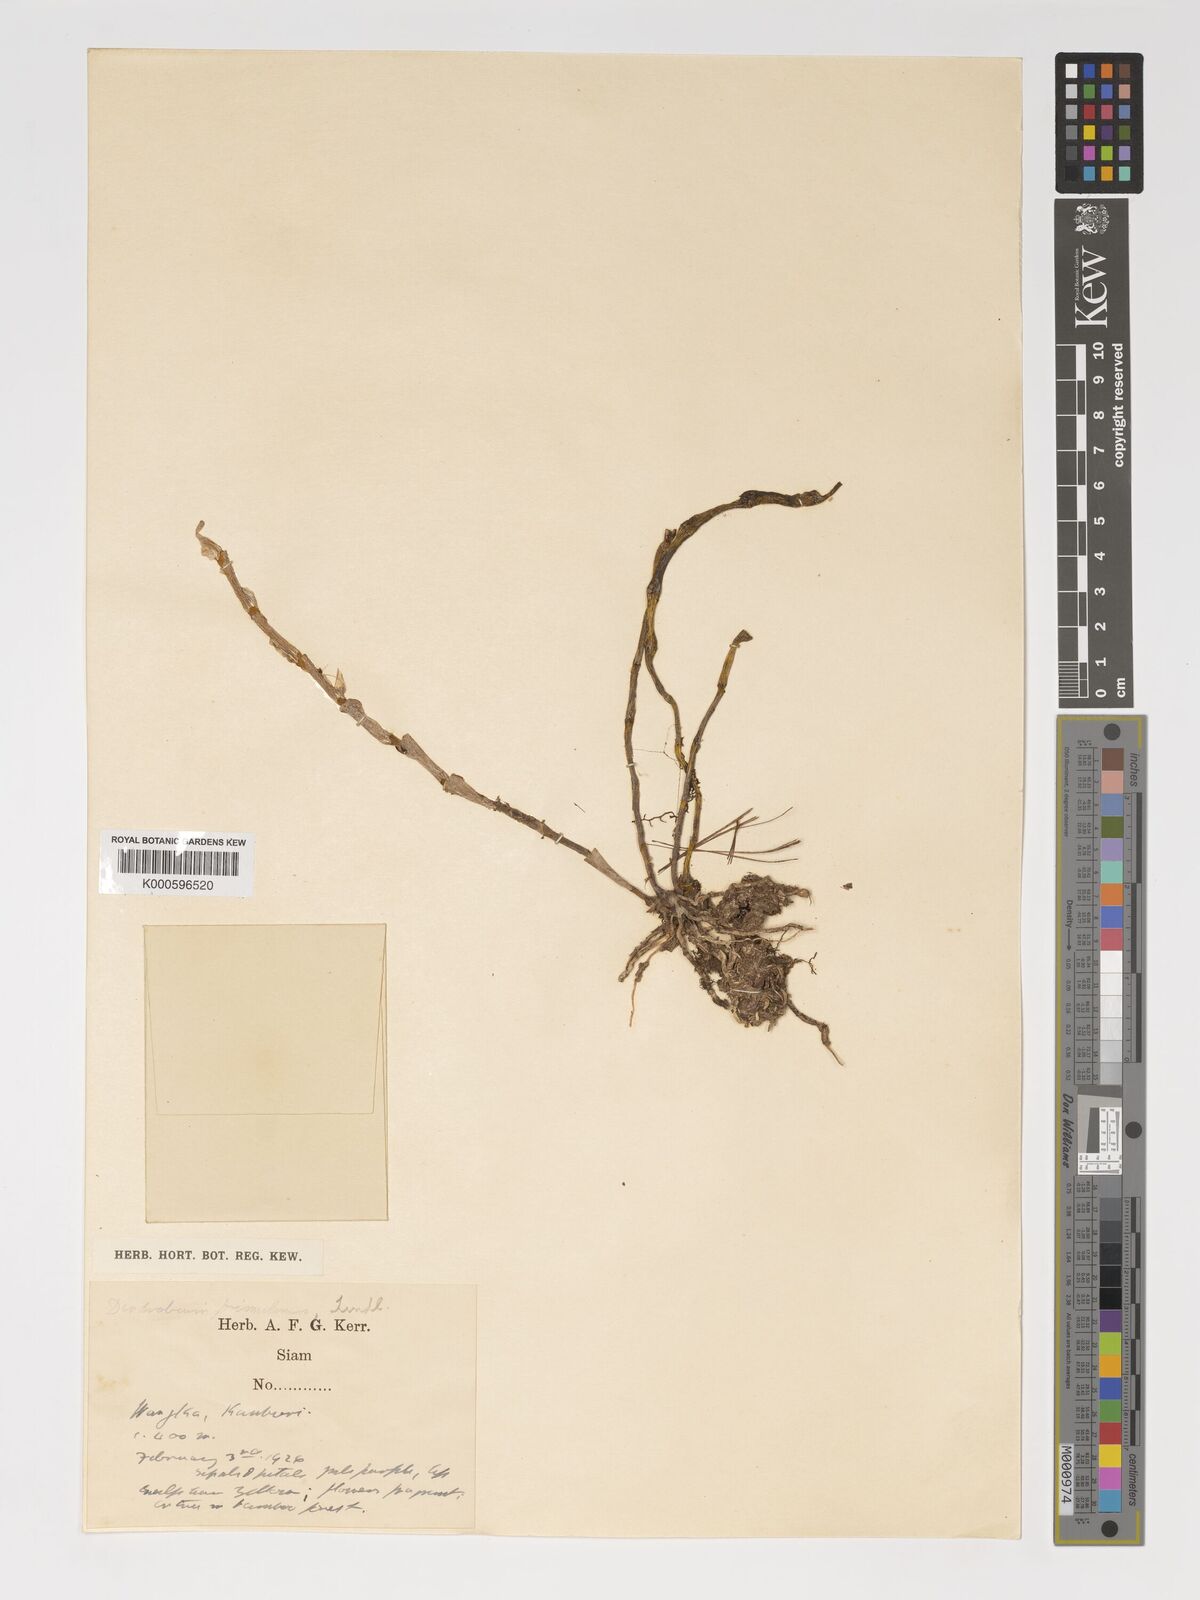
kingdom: Plantae
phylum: Tracheophyta
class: Liliopsida
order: Asparagales
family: Orchidaceae
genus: Dendrobium
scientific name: Dendrobium polyanthum
